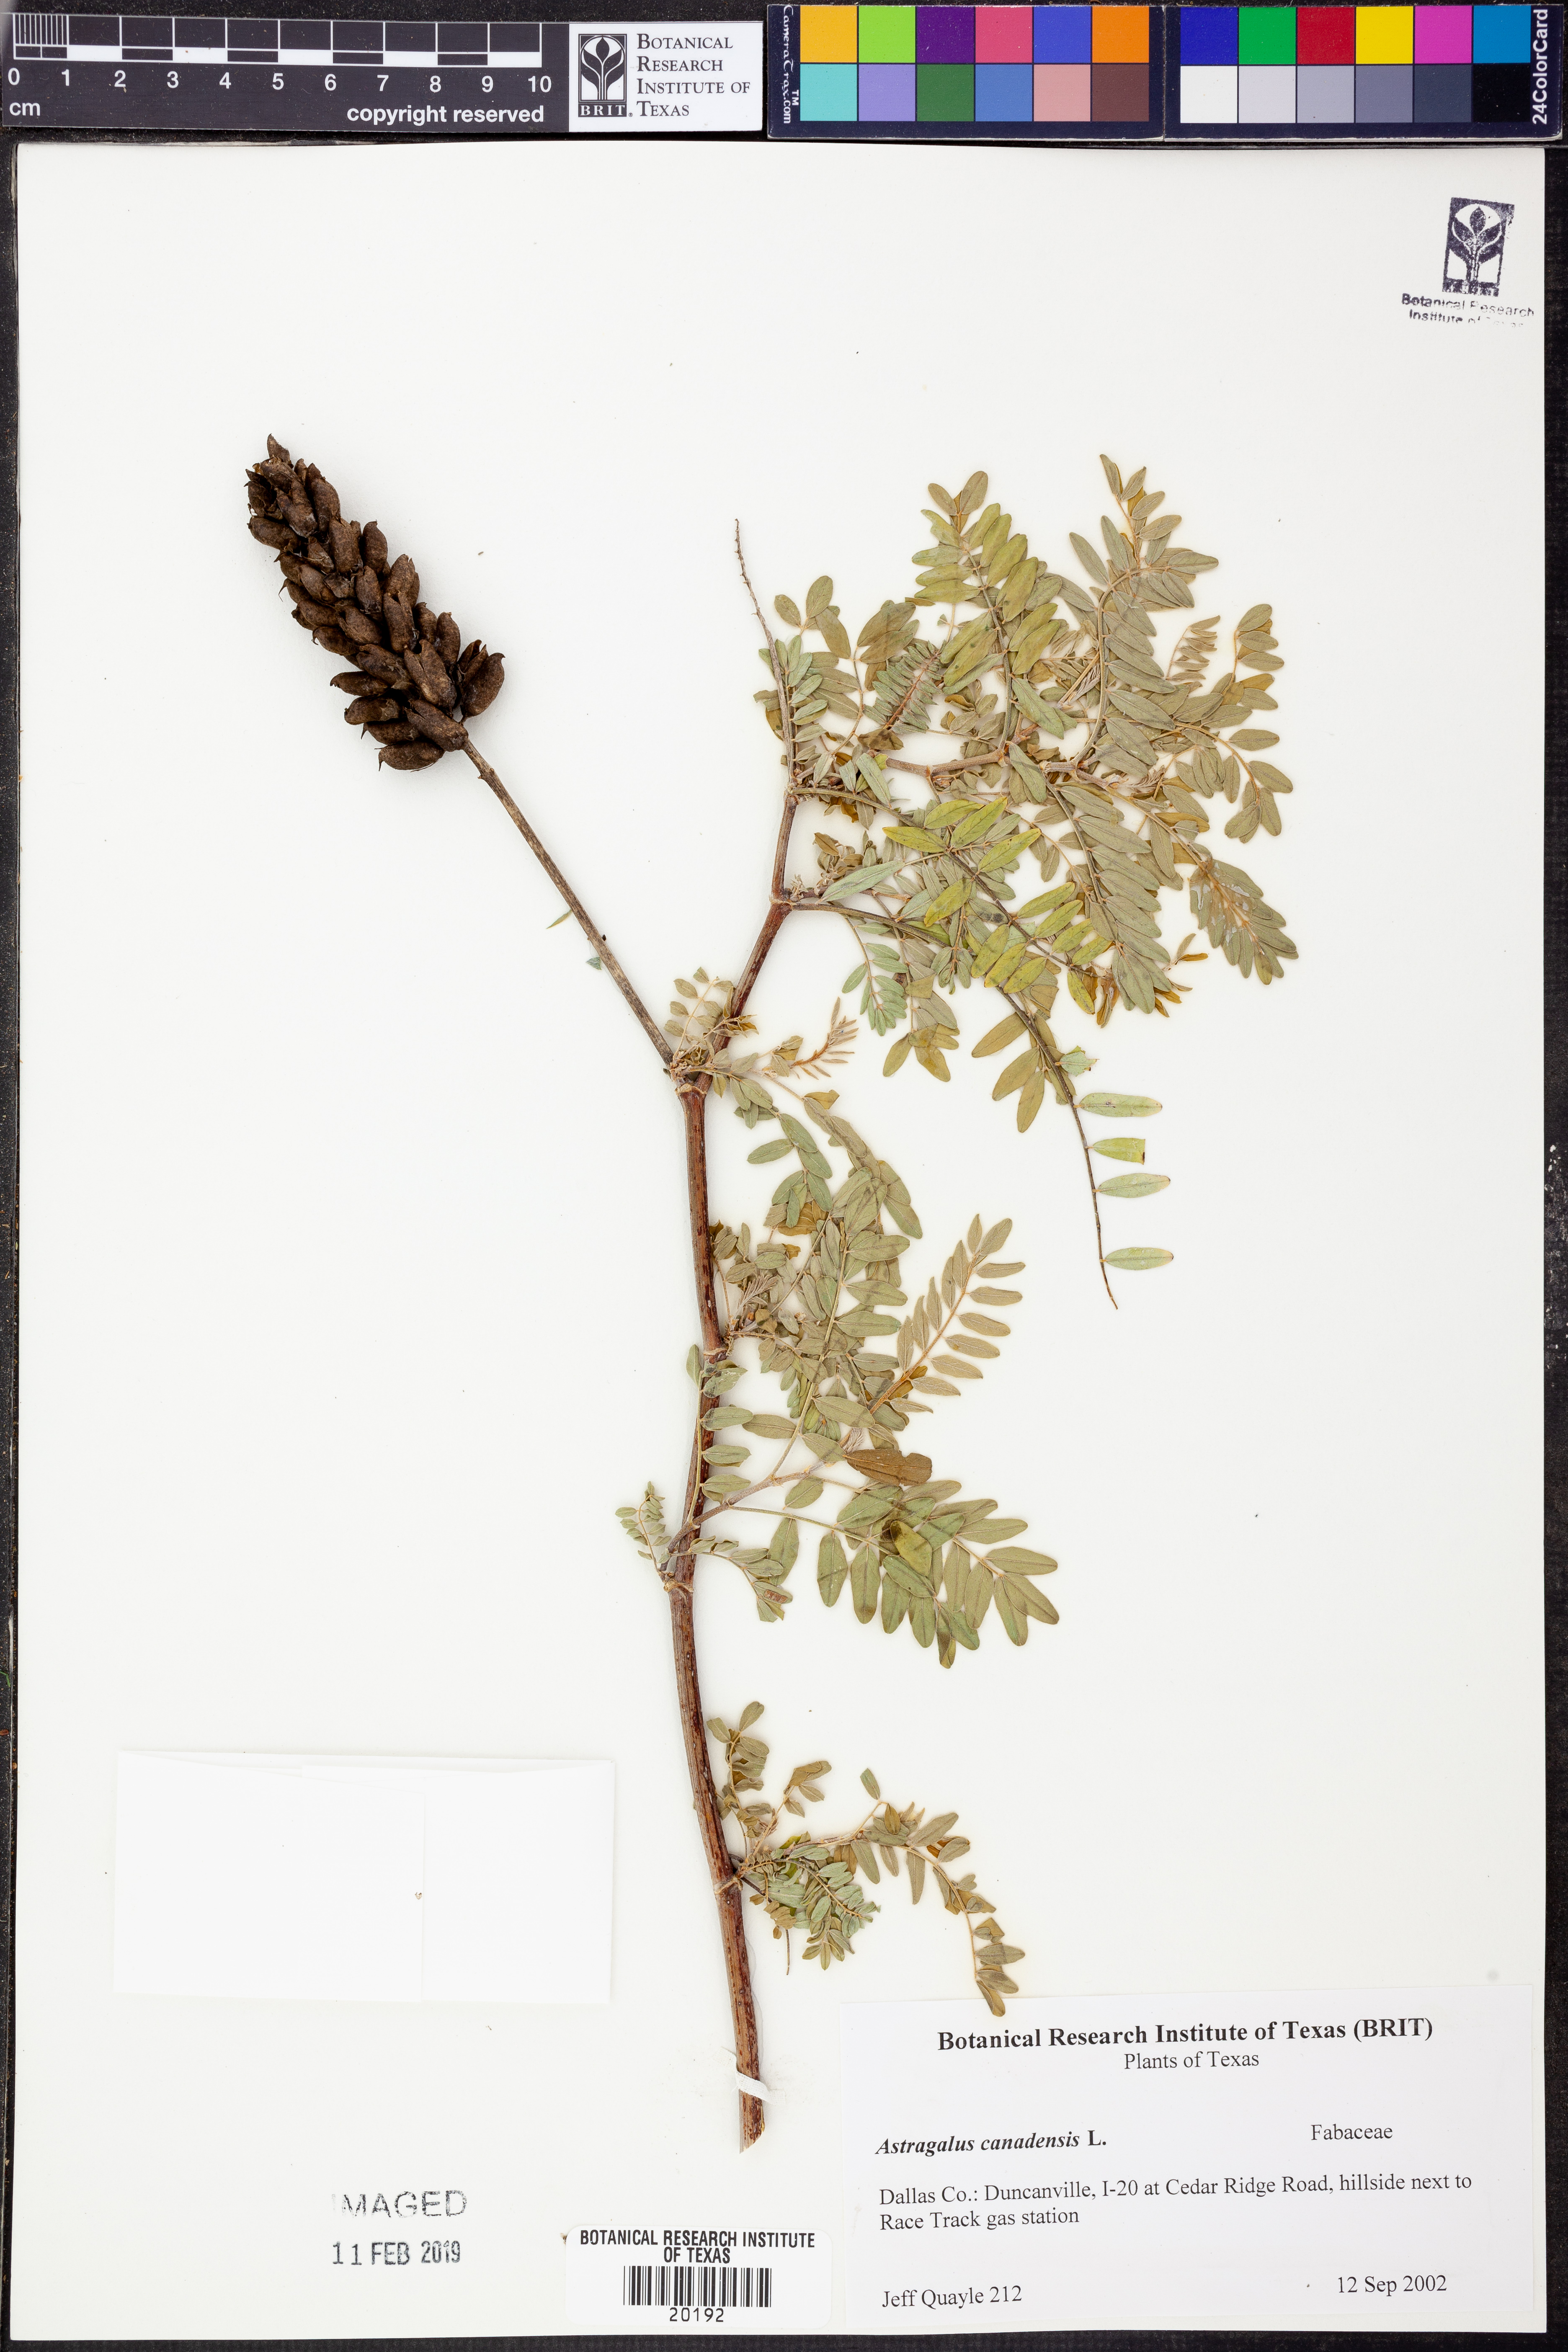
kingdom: Plantae
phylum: Tracheophyta
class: Magnoliopsida
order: Fabales
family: Fabaceae
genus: Astragalus
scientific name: Astragalus canadensis
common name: Canada milk-vetch
